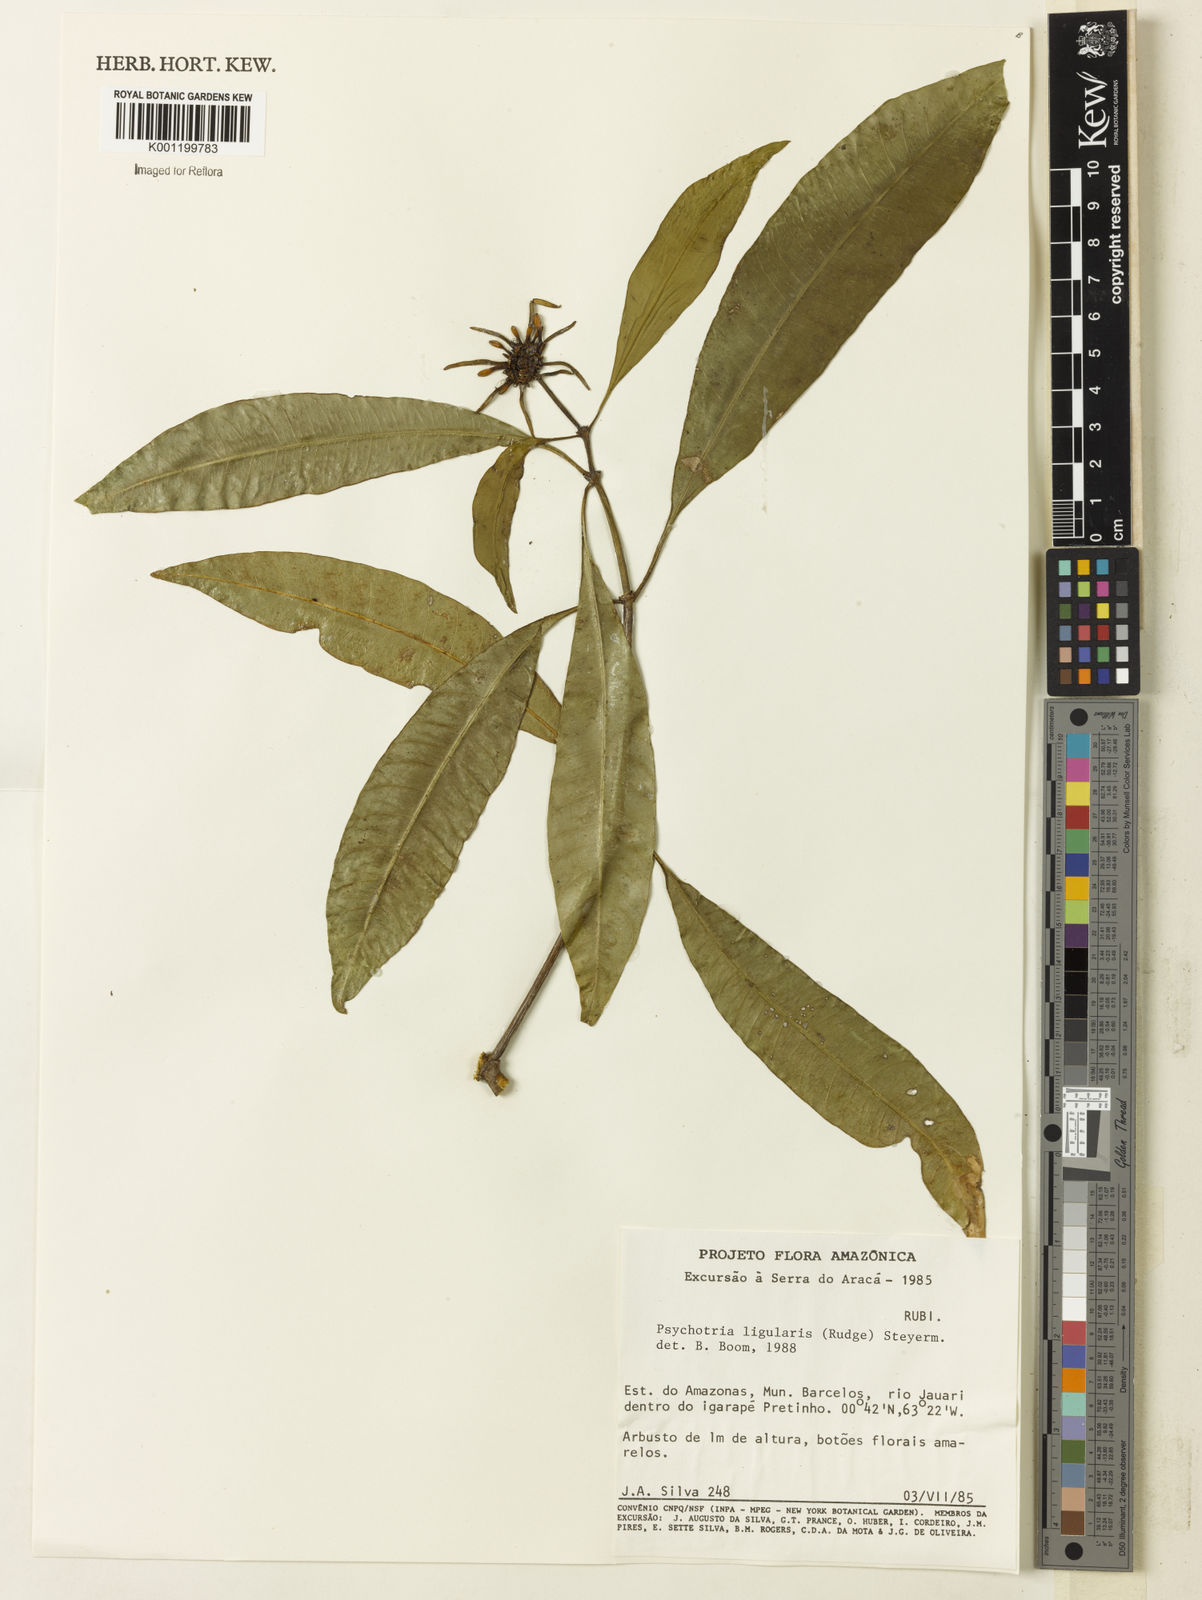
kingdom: Plantae
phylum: Tracheophyta
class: Magnoliopsida
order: Gentianales
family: Rubiaceae
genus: Carapichea
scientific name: Carapichea ligularis
